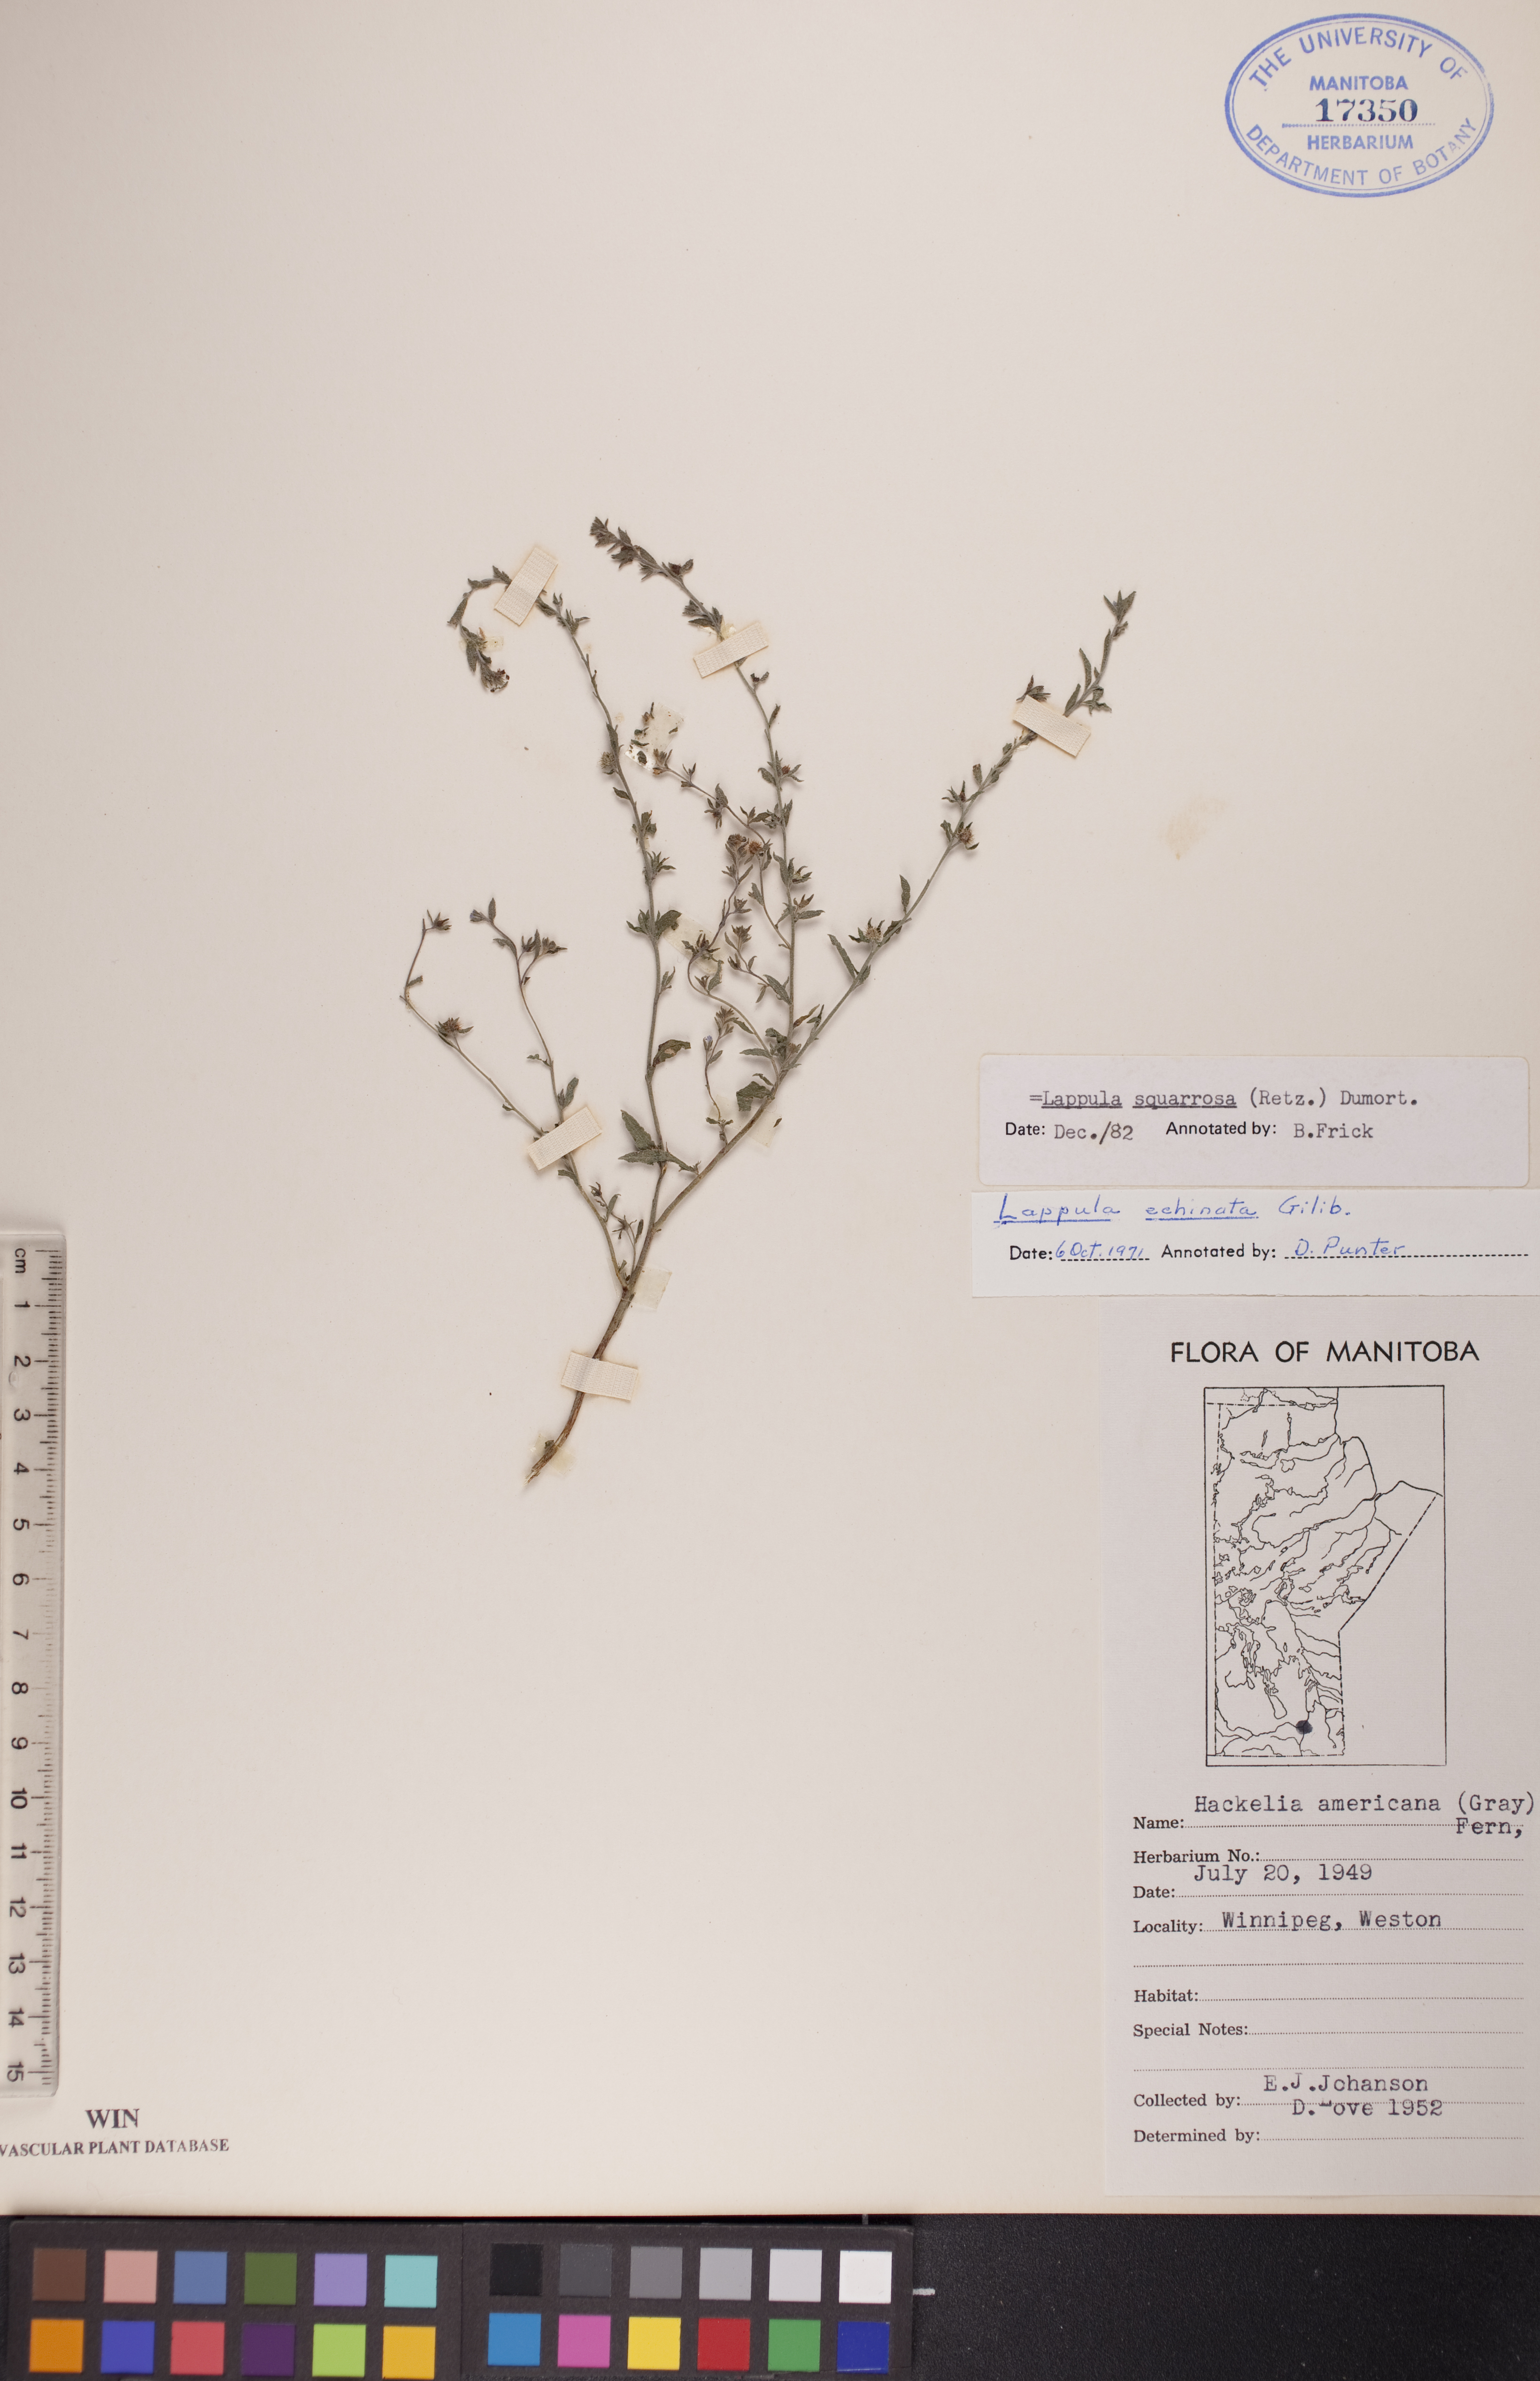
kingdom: Plantae
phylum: Tracheophyta
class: Magnoliopsida
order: Boraginales
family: Boraginaceae
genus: Lappula
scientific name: Lappula squarrosa
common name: European stickseed
